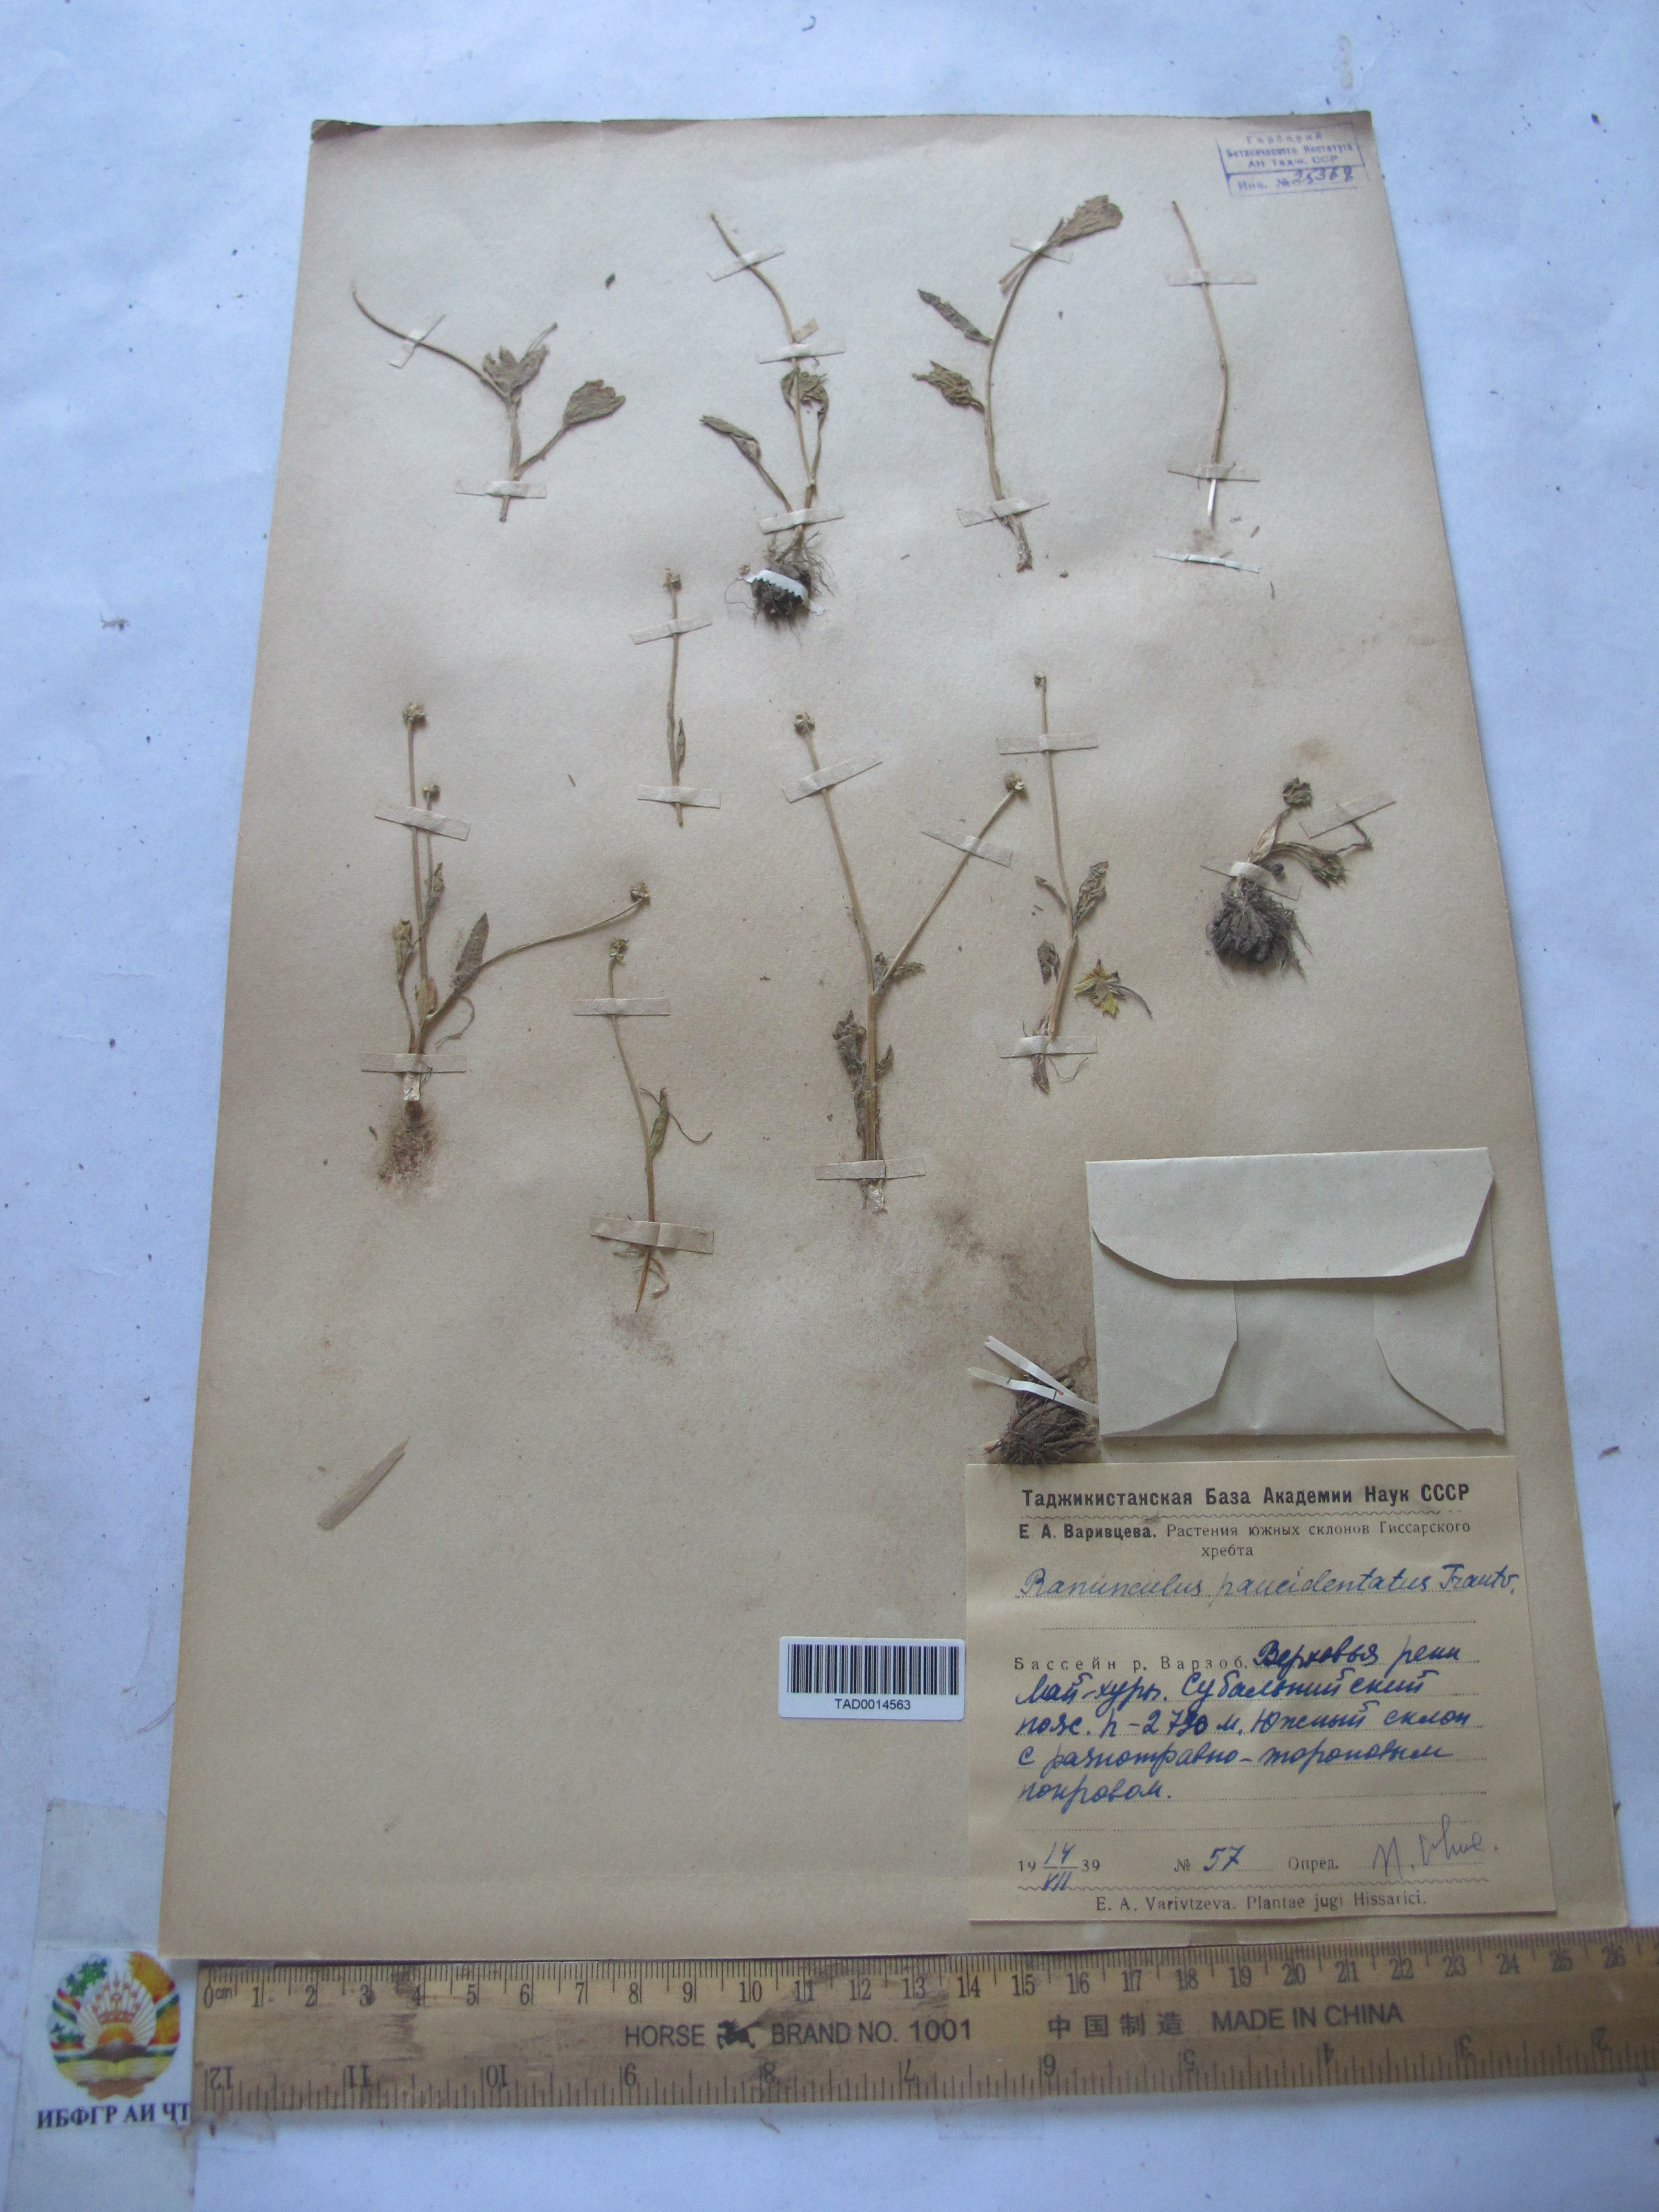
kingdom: Plantae
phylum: Tracheophyta
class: Magnoliopsida
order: Ranunculales
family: Ranunculaceae
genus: Ranunculus
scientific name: Ranunculus paucidentatus
